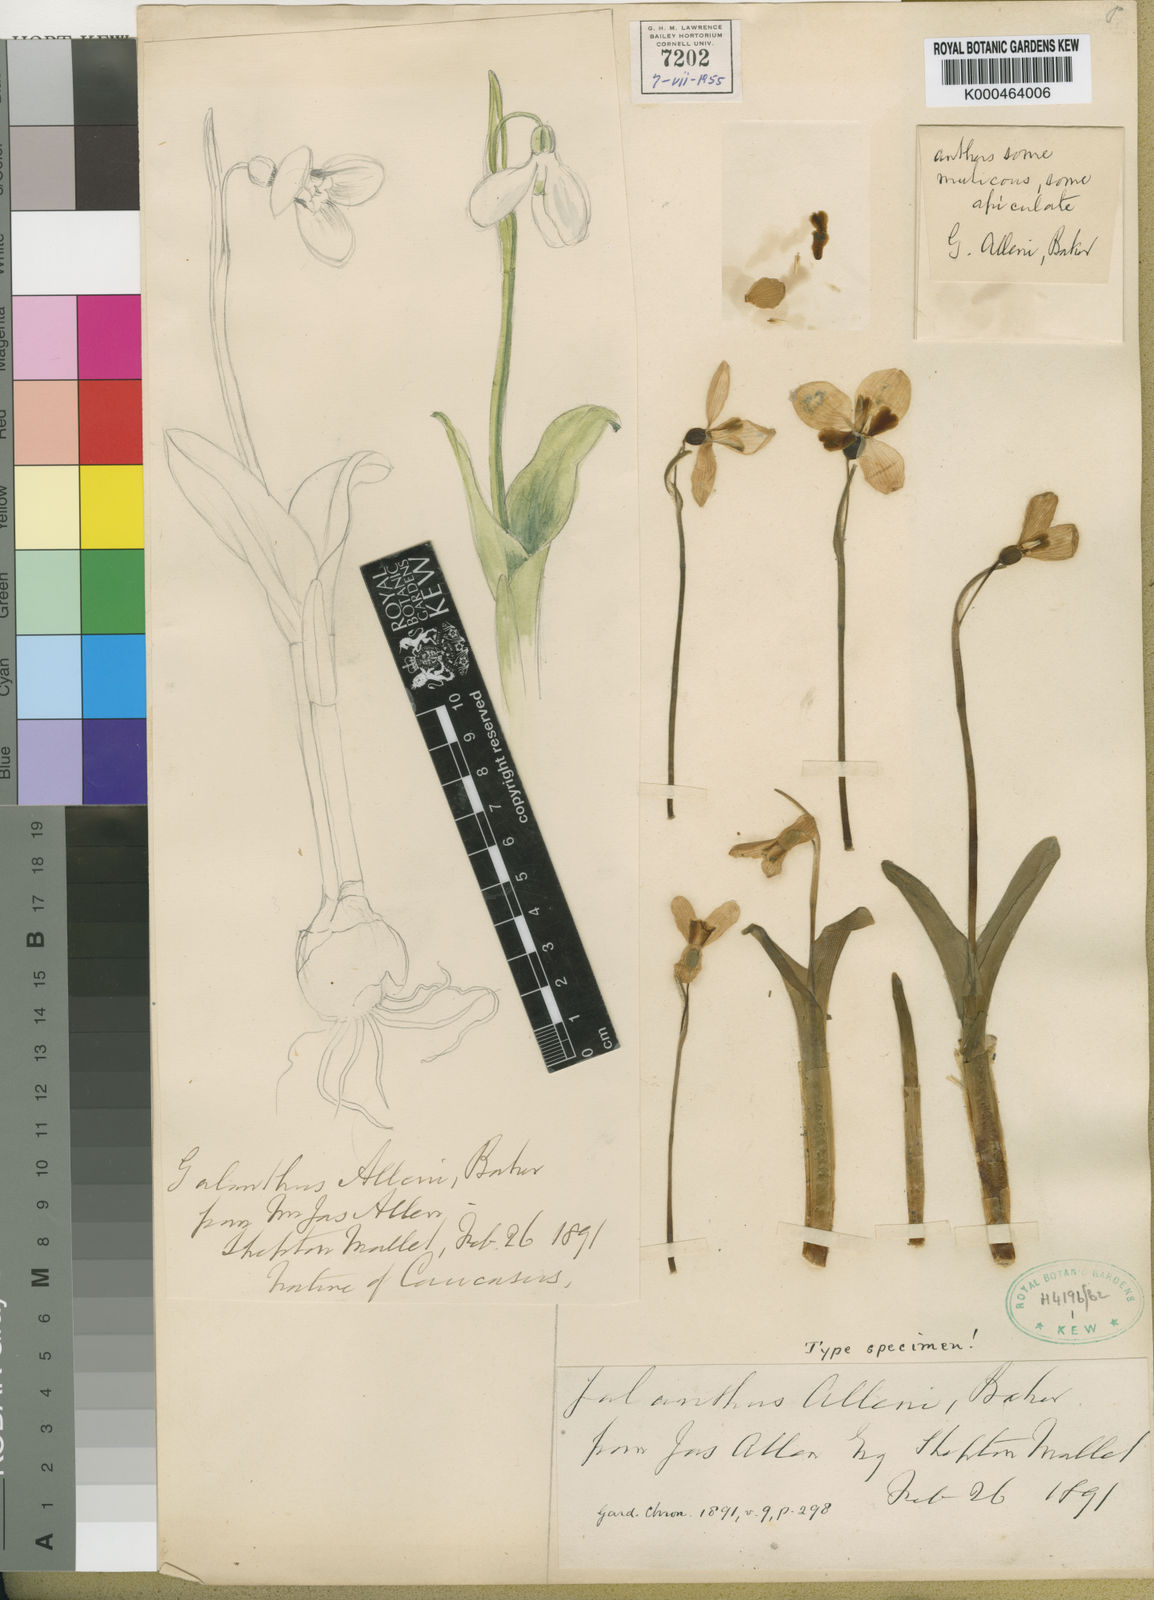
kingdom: Plantae
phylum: Tracheophyta
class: Liliopsida
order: Asparagales
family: Amaryllidaceae
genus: Galanthus
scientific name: Galanthus allenii
